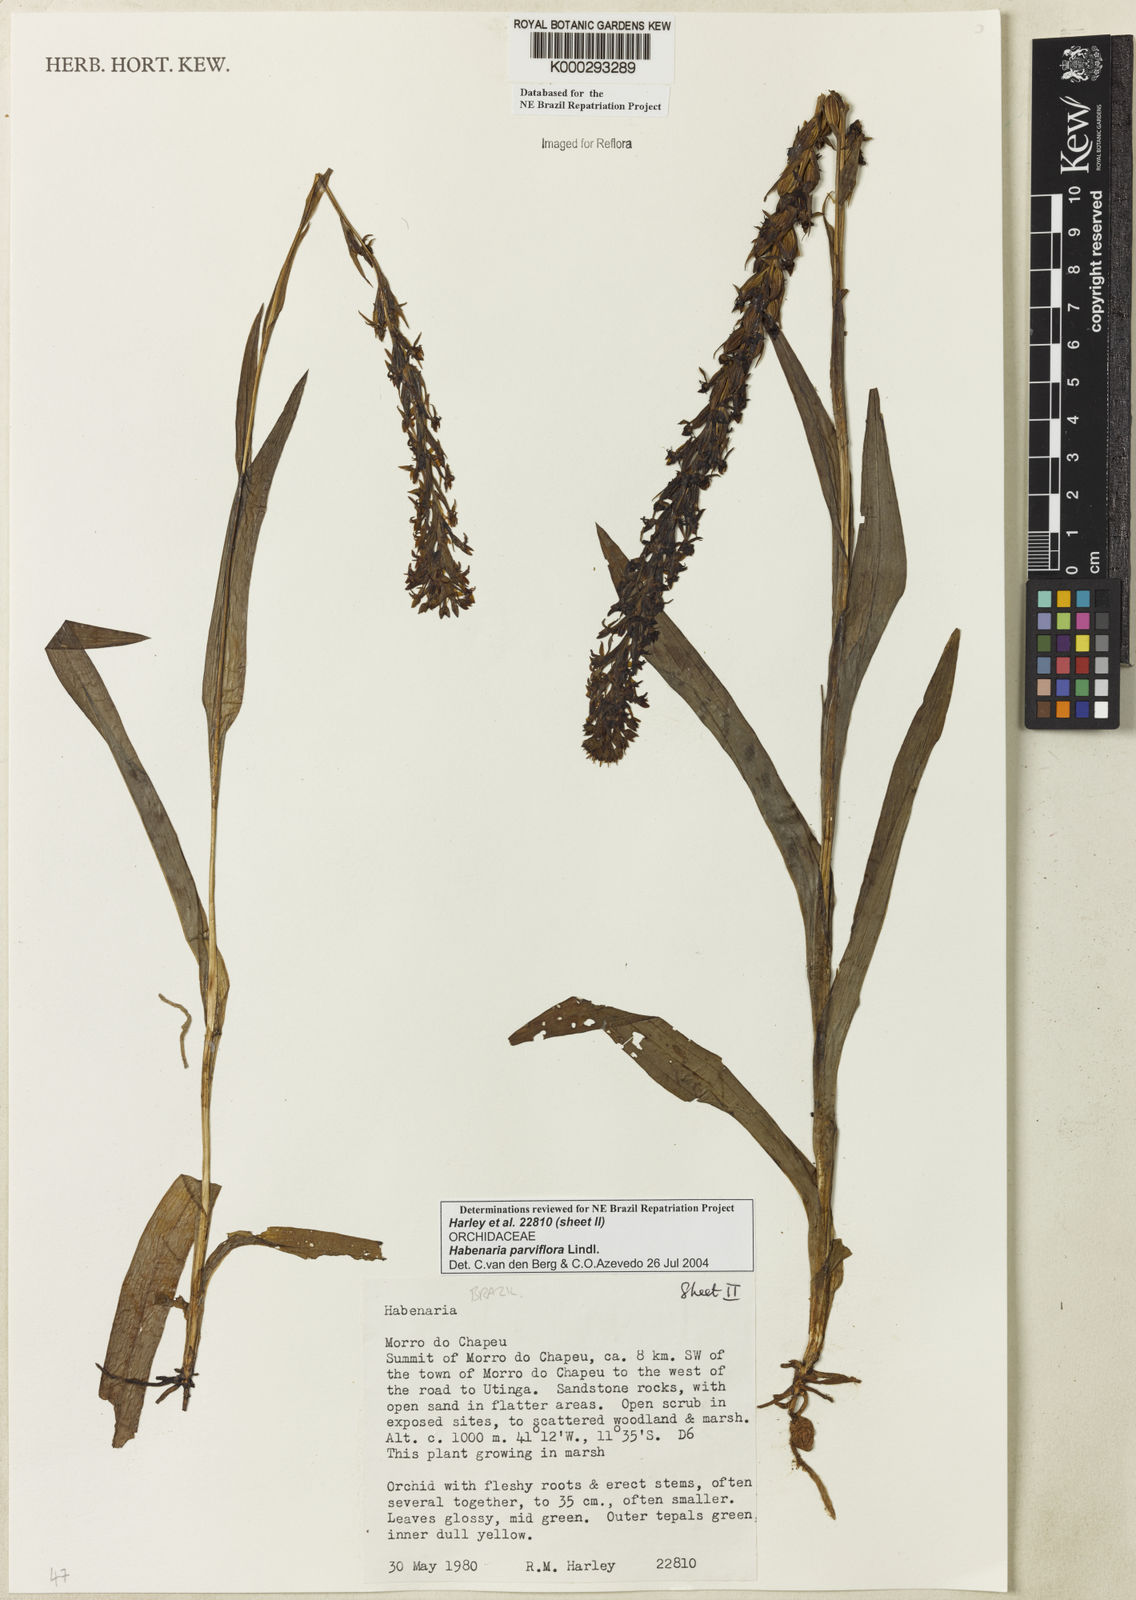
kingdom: Plantae
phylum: Tracheophyta
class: Liliopsida
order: Asparagales
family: Orchidaceae
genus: Habenaria
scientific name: Habenaria parviflora
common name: Small flowered habenaria
